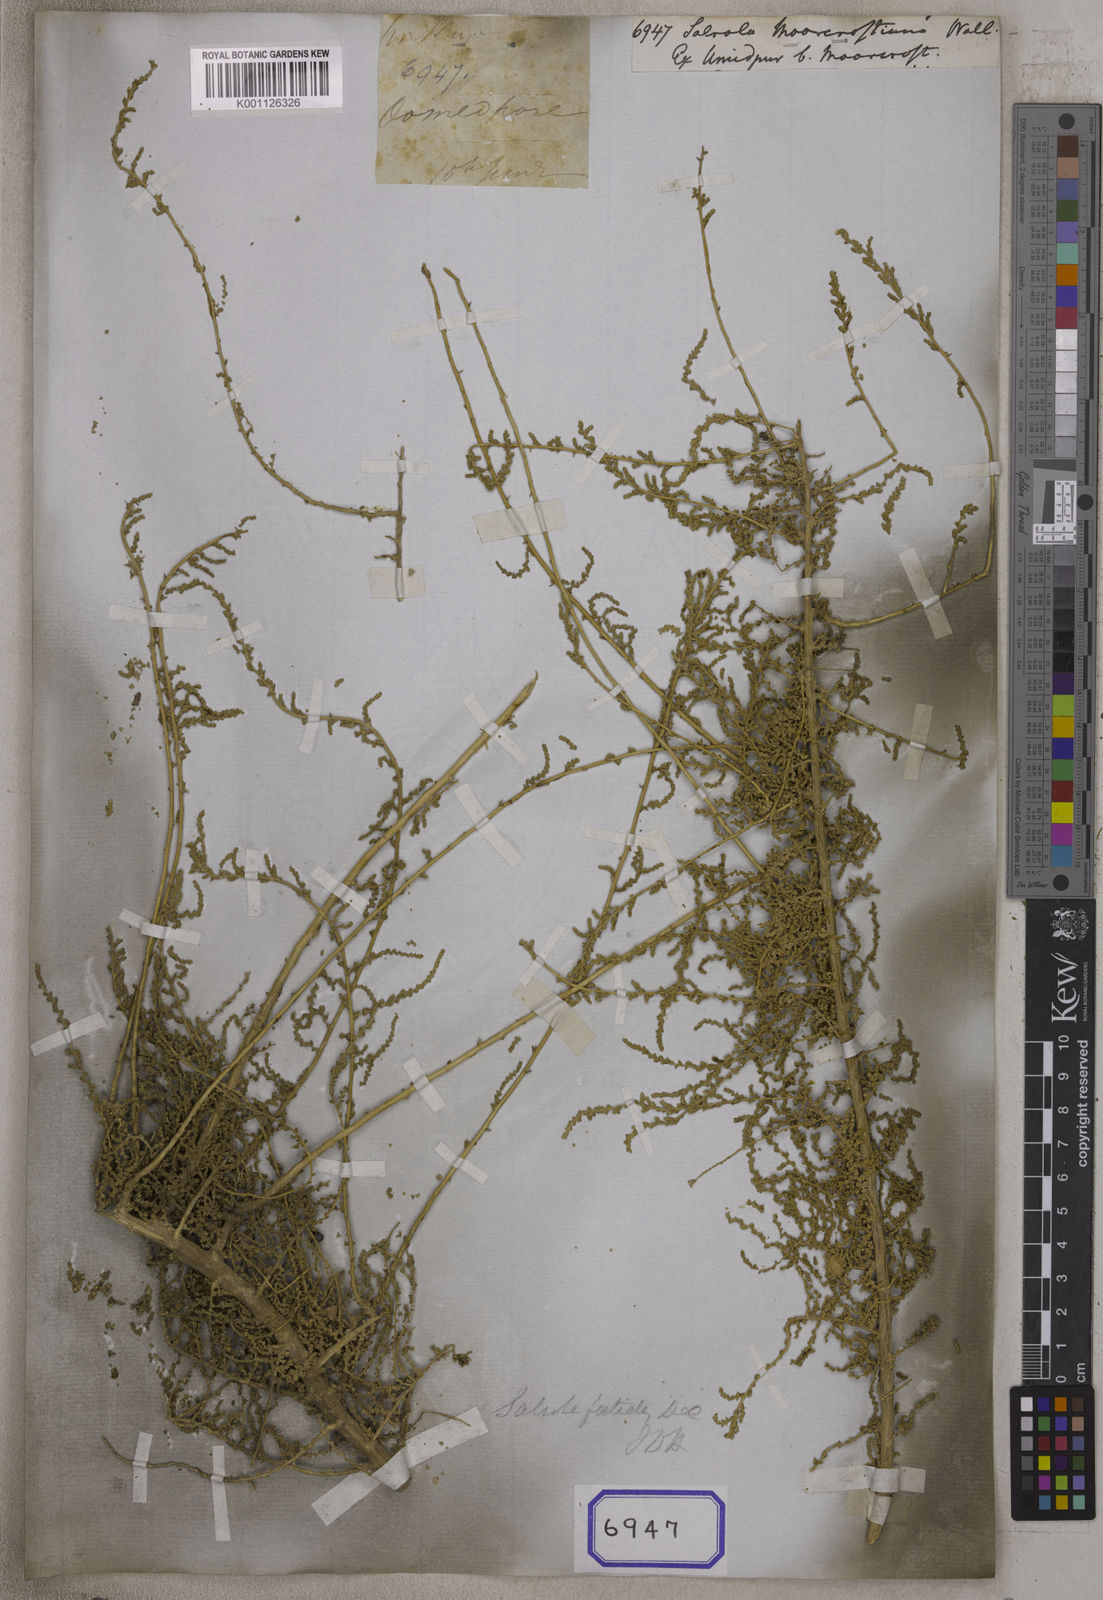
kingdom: Plantae
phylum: Tracheophyta
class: Magnoliopsida
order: Caryophyllales
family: Amaranthaceae
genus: Caroxylon
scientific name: Caroxylon imbricatum
